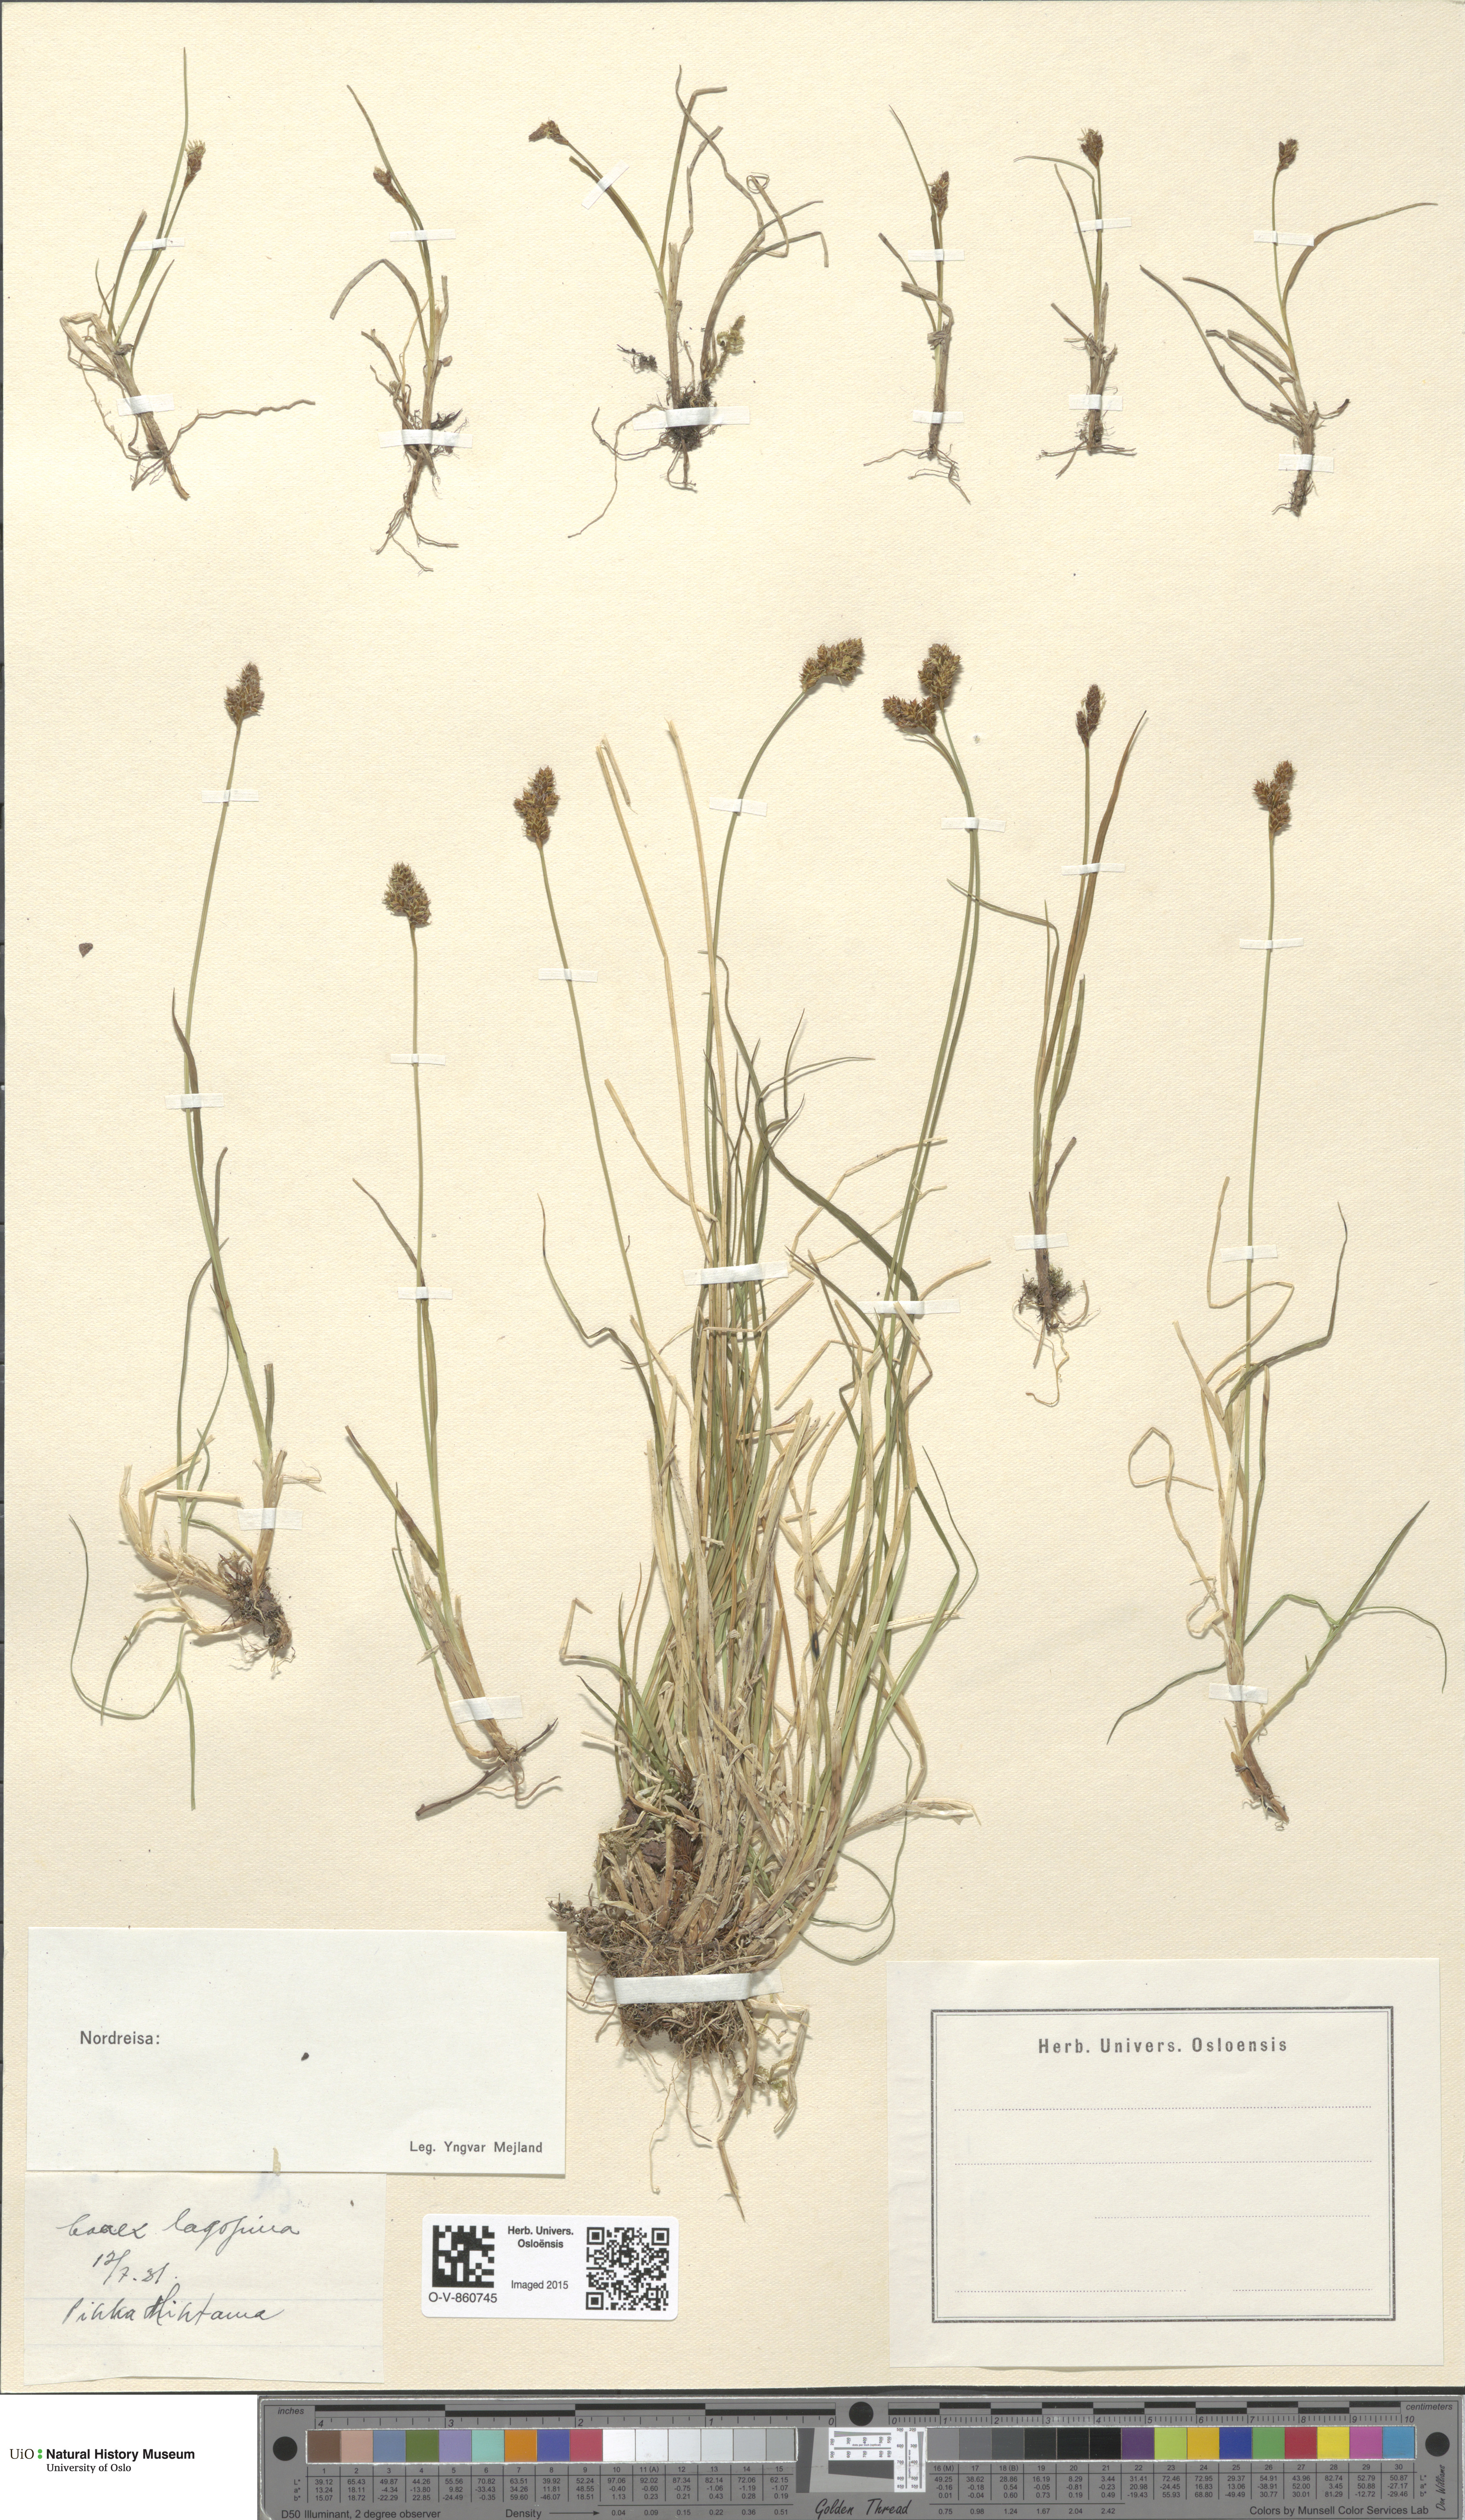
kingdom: Plantae
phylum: Tracheophyta
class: Liliopsida
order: Poales
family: Cyperaceae
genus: Carex
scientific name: Carex lachenalii
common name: Hare's-foot sedge
